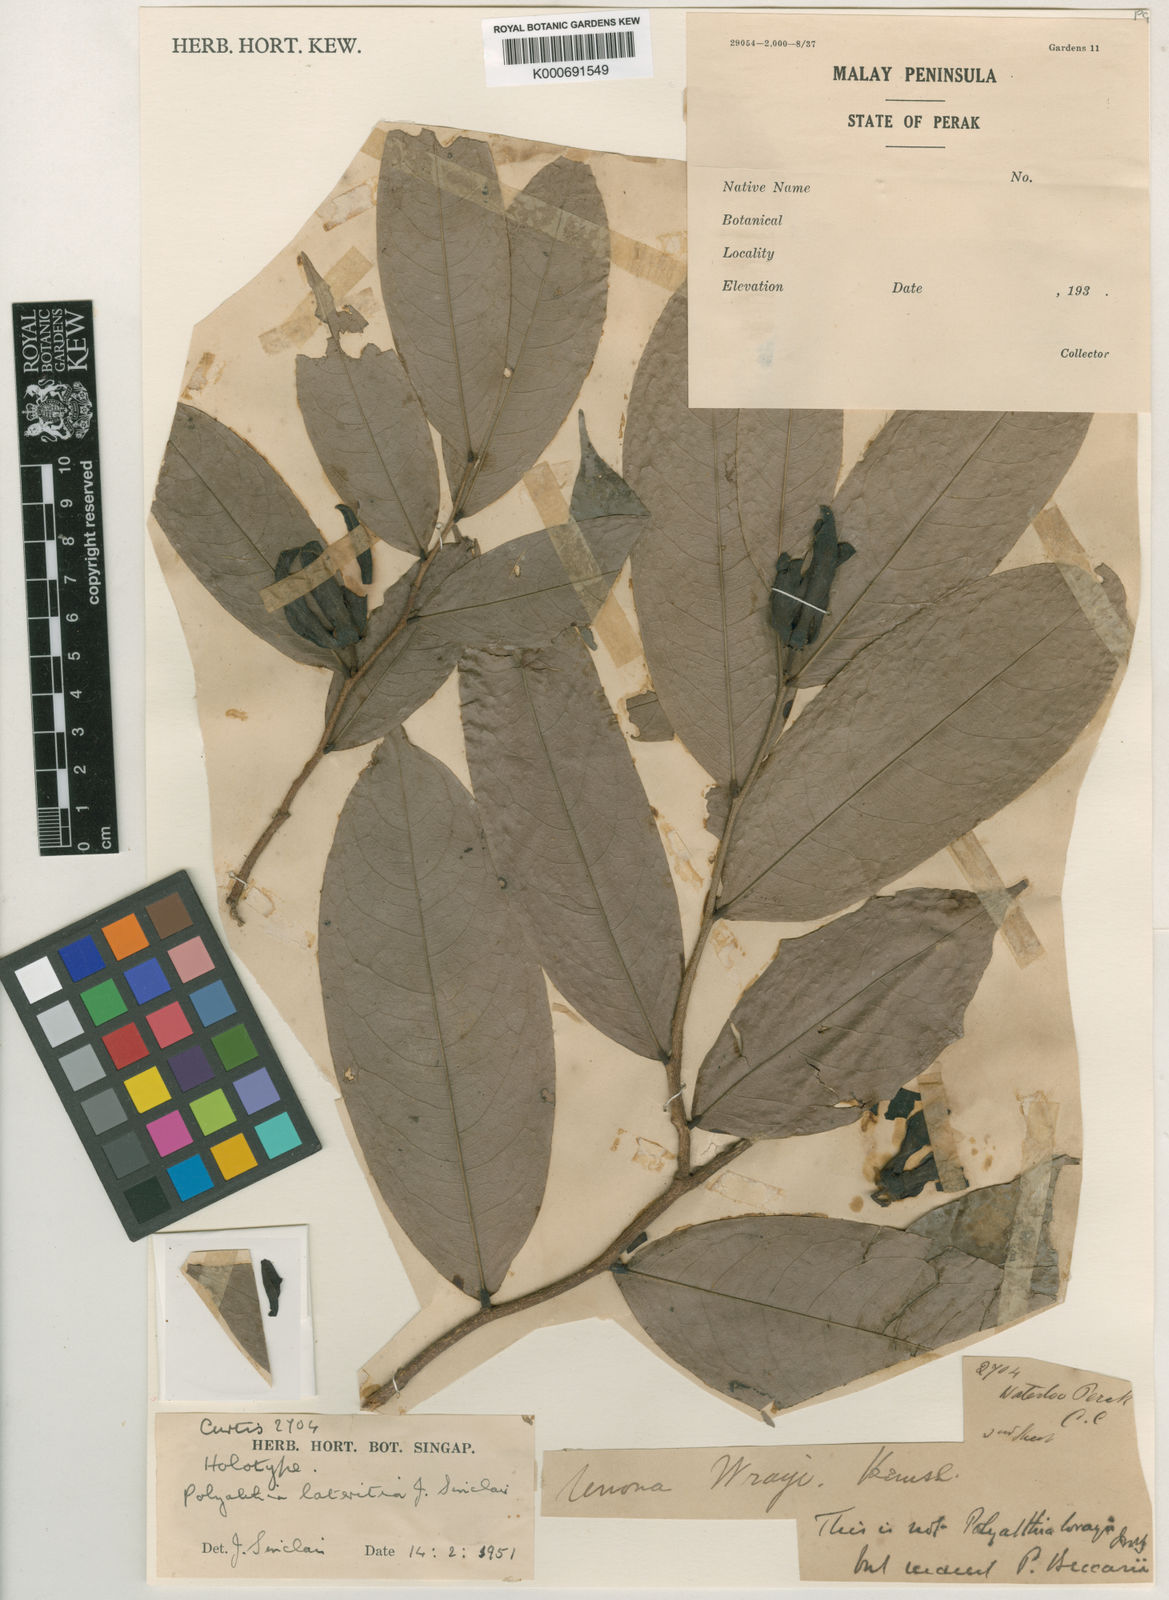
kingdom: Plantae
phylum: Tracheophyta
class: Magnoliopsida
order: Magnoliales
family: Annonaceae
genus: Polyalthia
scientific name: Polyalthia lateritia
